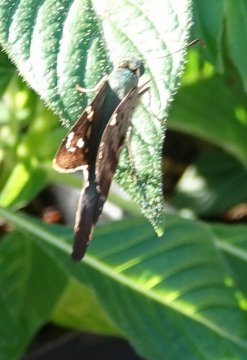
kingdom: Animalia
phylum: Arthropoda
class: Insecta
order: Lepidoptera
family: Hesperiidae
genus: Urbanus
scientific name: Urbanus proteus
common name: Long-tailed Skipper
